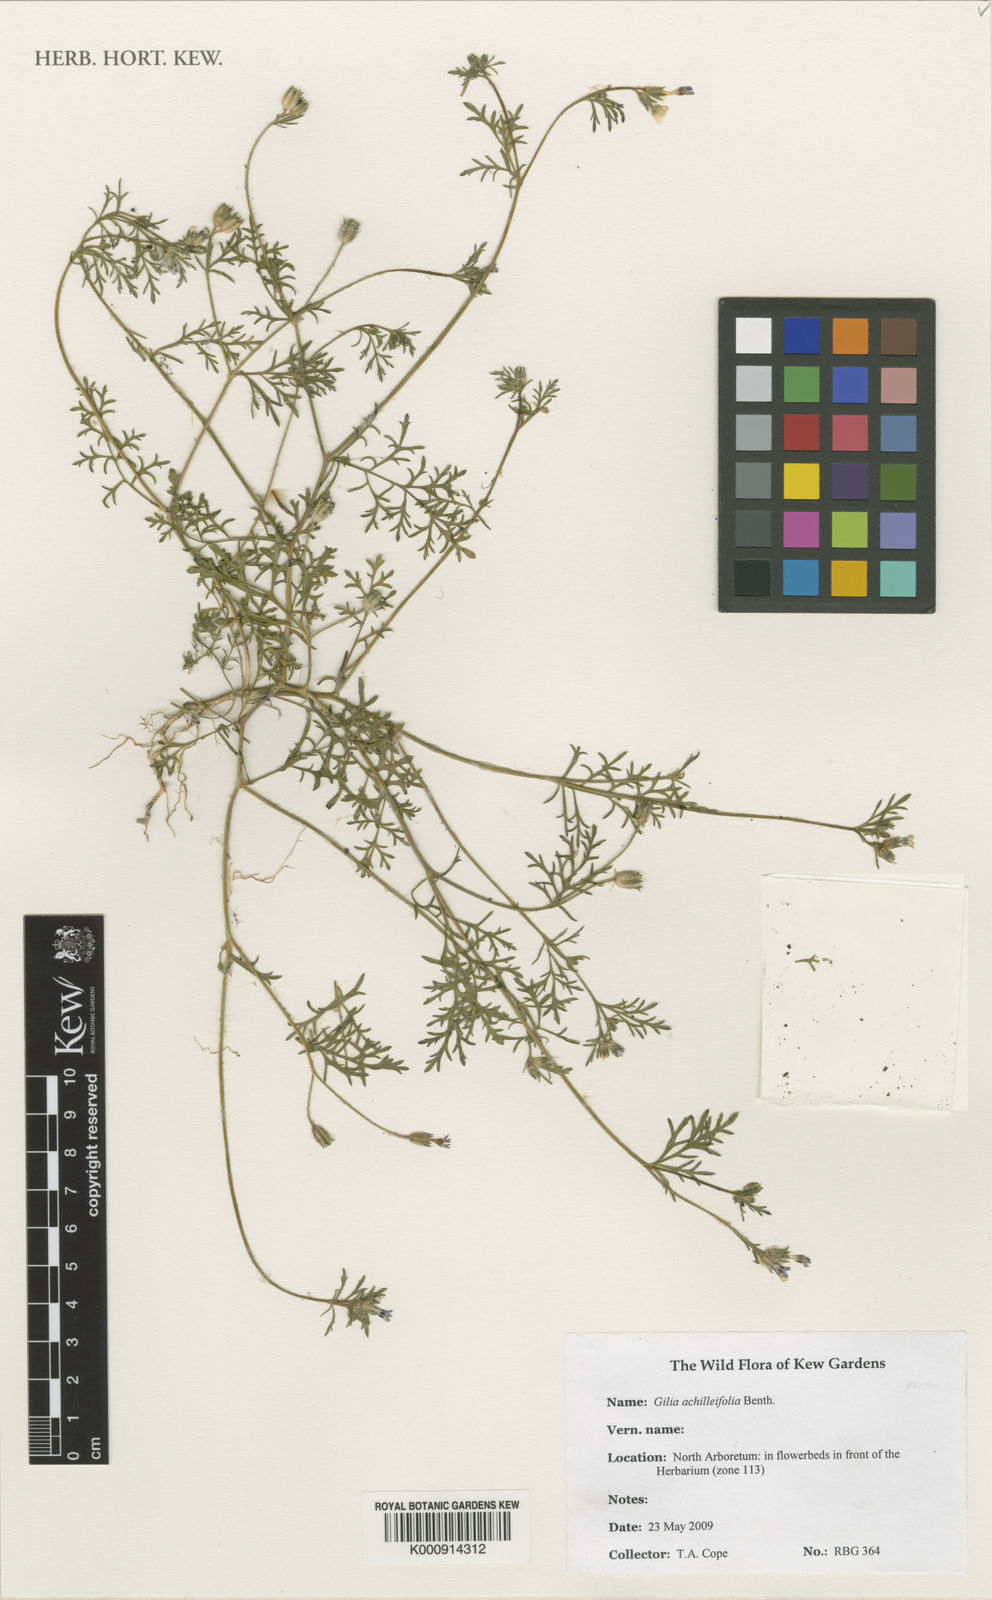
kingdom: Plantae
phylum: Tracheophyta
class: Magnoliopsida
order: Ericales
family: Polemoniaceae
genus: Gilia
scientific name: Gilia achilleifolia
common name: California gily-flower
